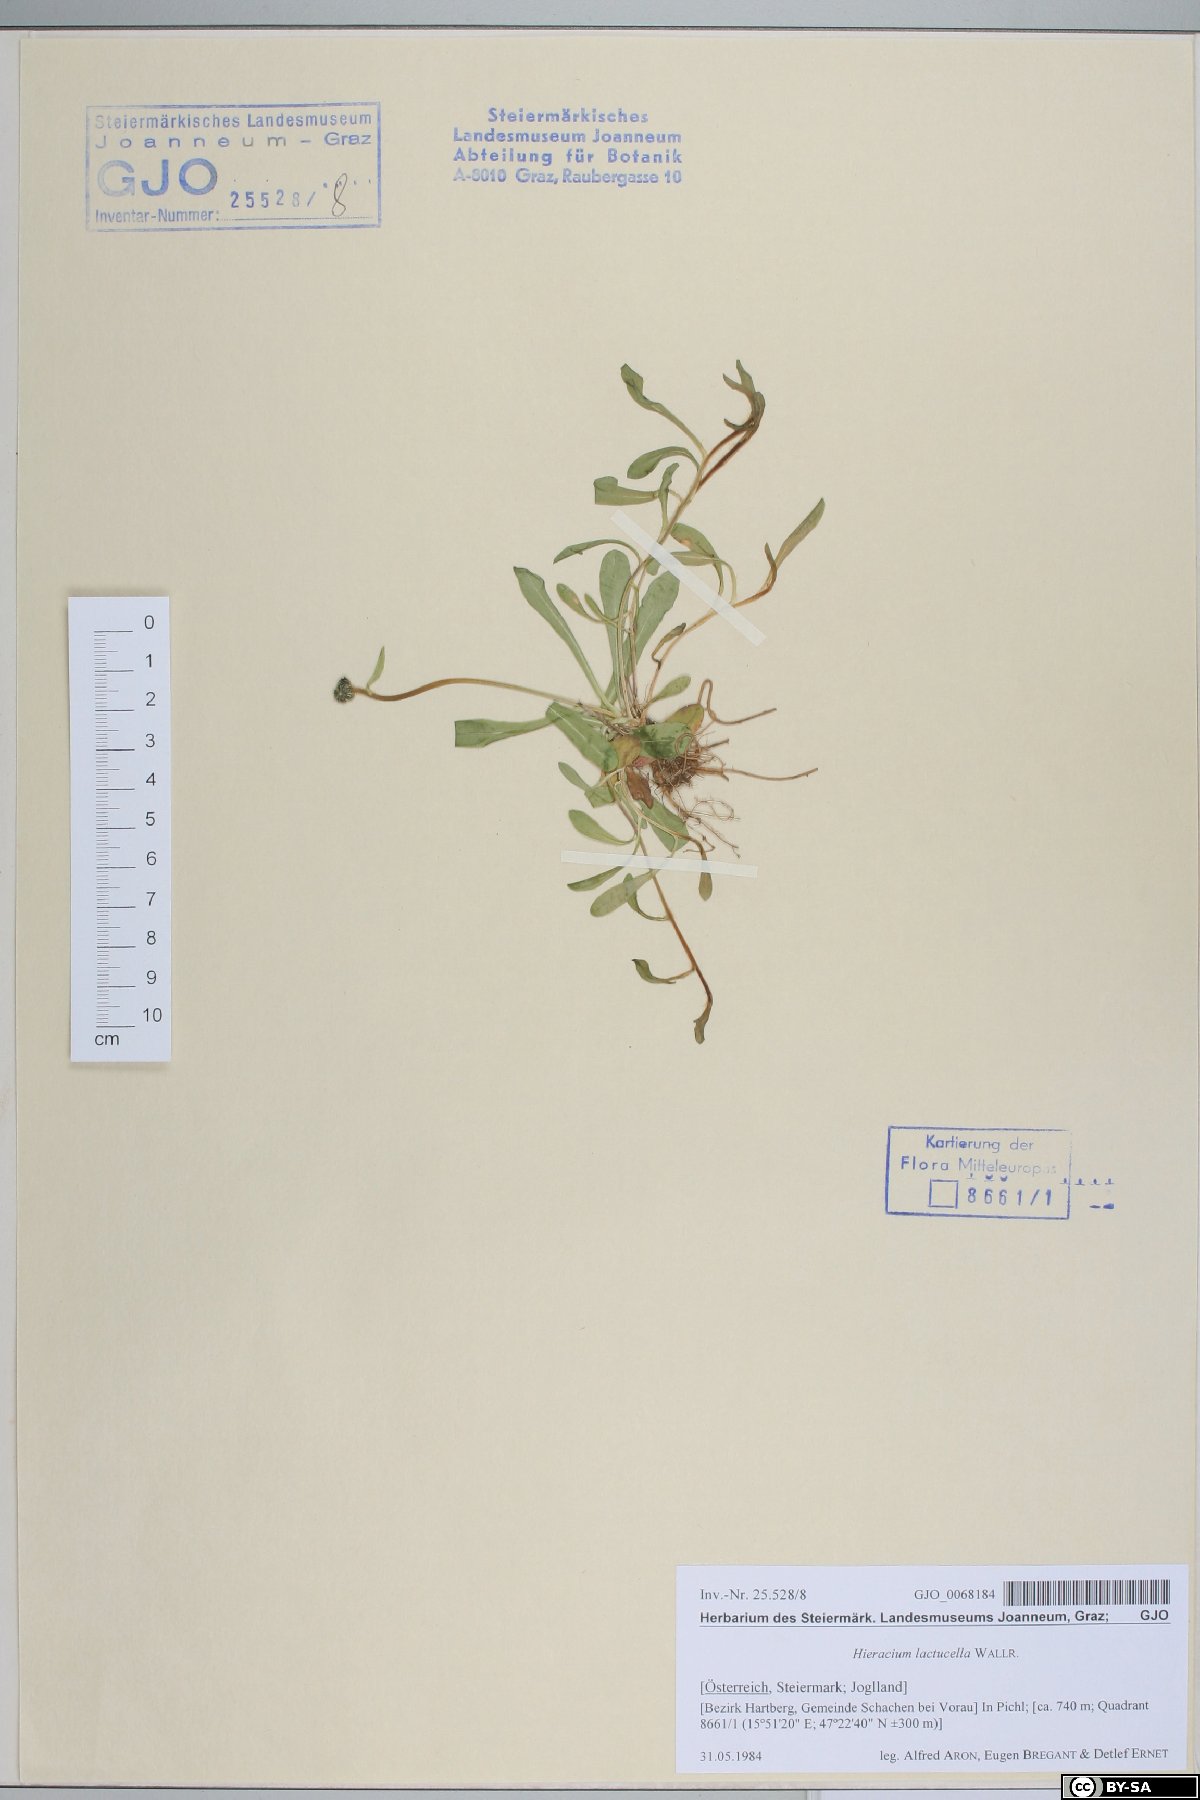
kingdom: Plantae
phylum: Tracheophyta
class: Magnoliopsida
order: Asterales
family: Asteraceae
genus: Pilosella
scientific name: Pilosella lactucella
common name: Glaucous fox-and-cubs
